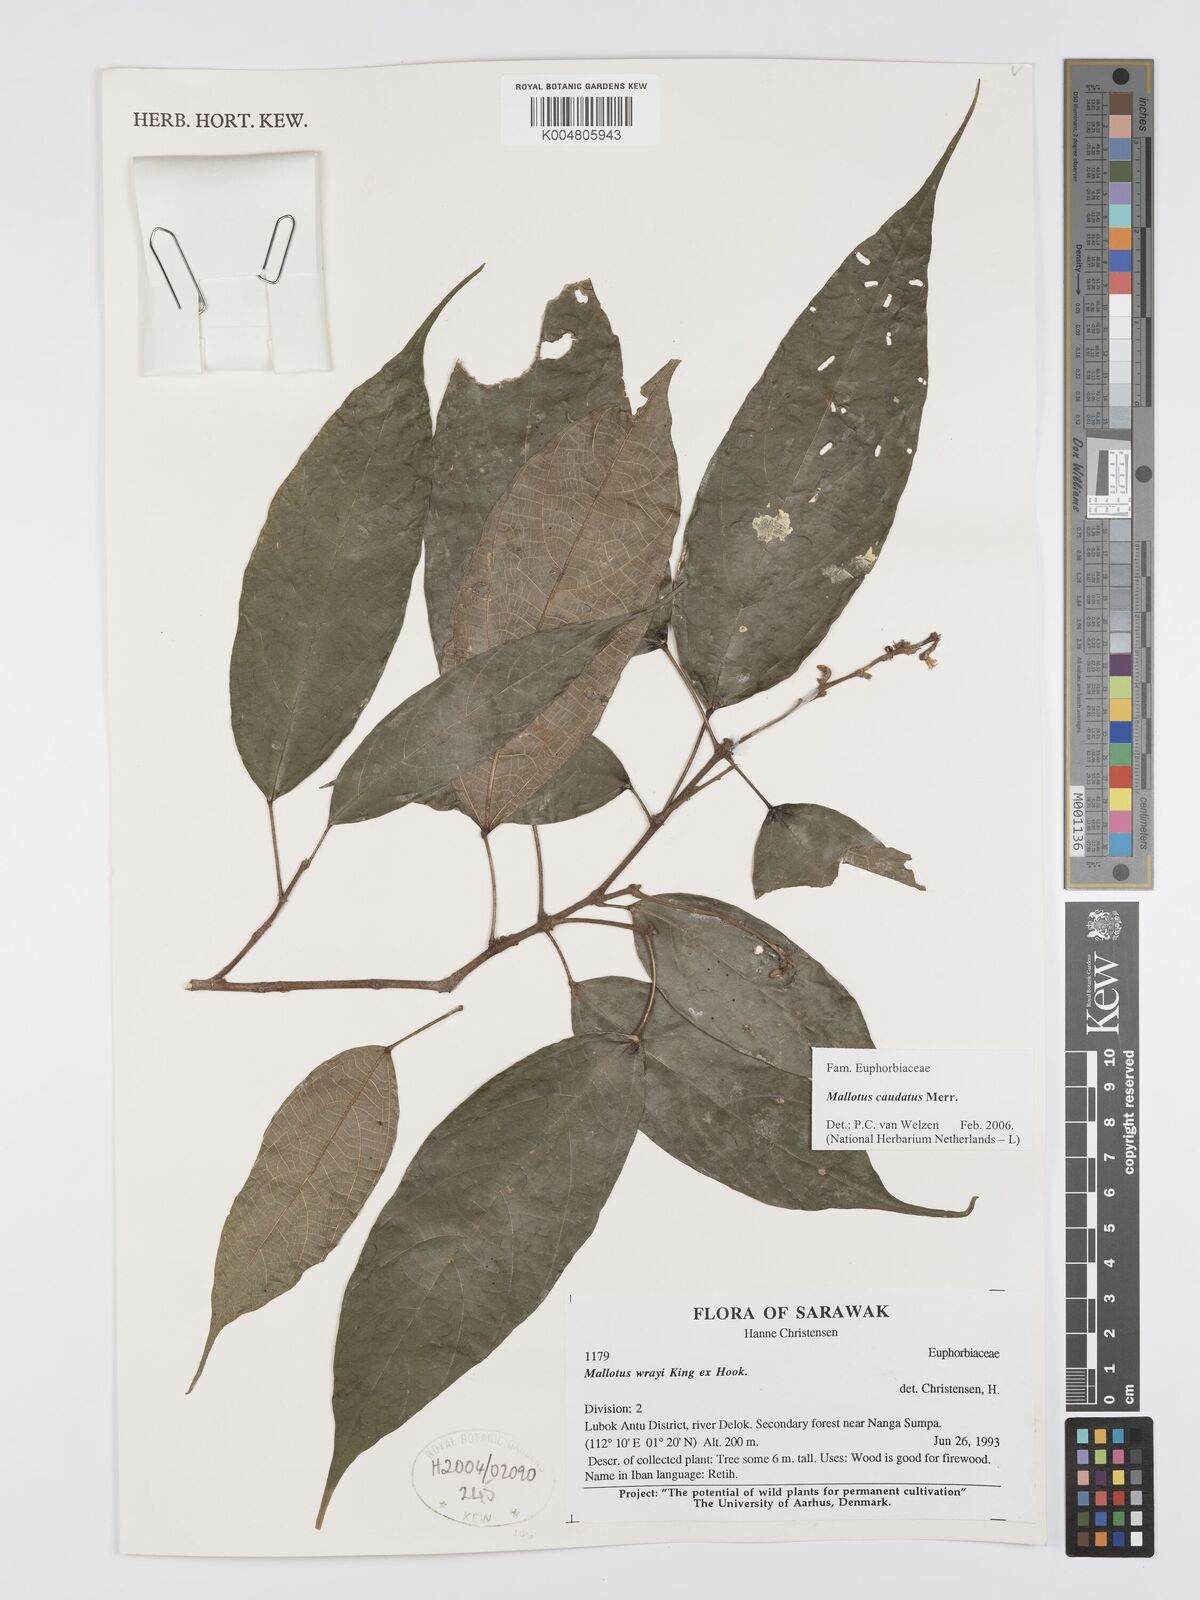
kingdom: Plantae
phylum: Tracheophyta
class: Magnoliopsida
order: Malpighiales
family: Euphorbiaceae
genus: Mallotus
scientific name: Mallotus caudatus
